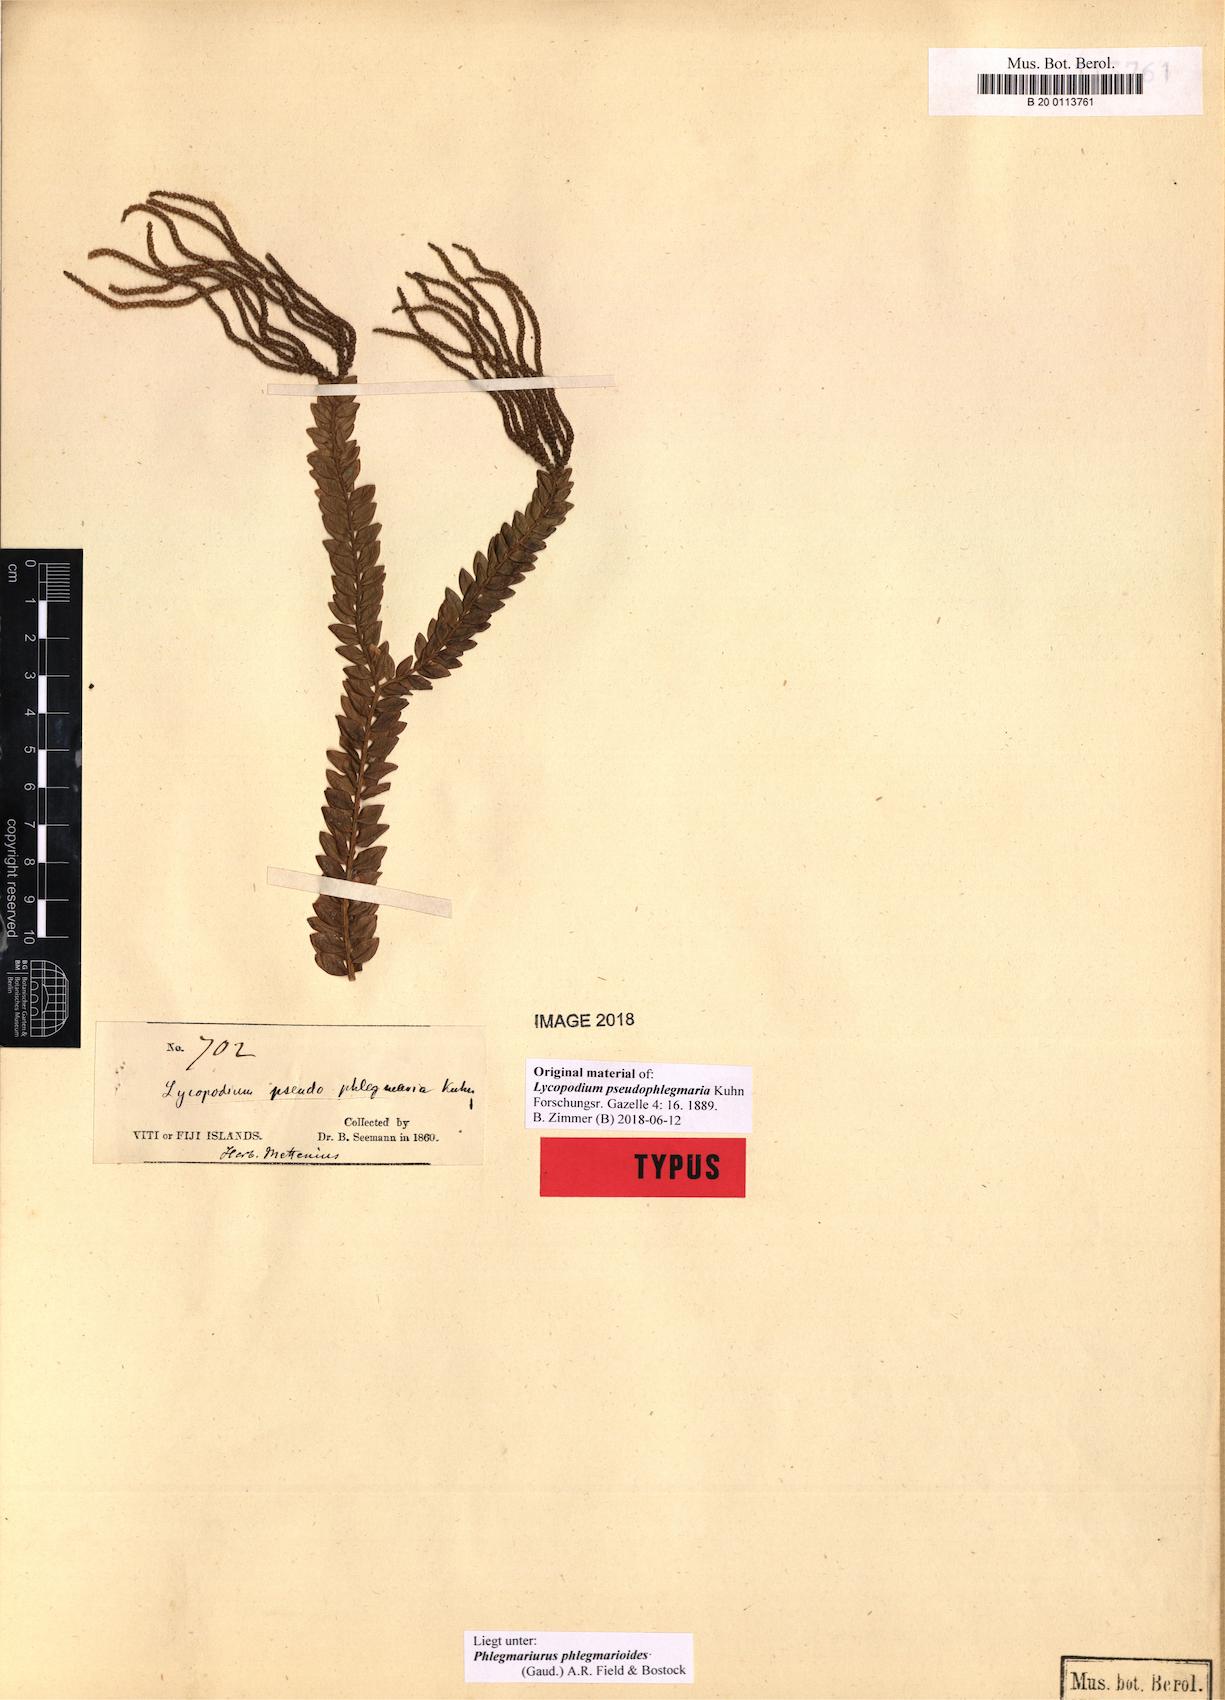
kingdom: Plantae
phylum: Tracheophyta
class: Lycopodiopsida
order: Lycopodiales
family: Lycopodiaceae
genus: Phlegmariurus
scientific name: Phlegmariurus phlegmarioides
